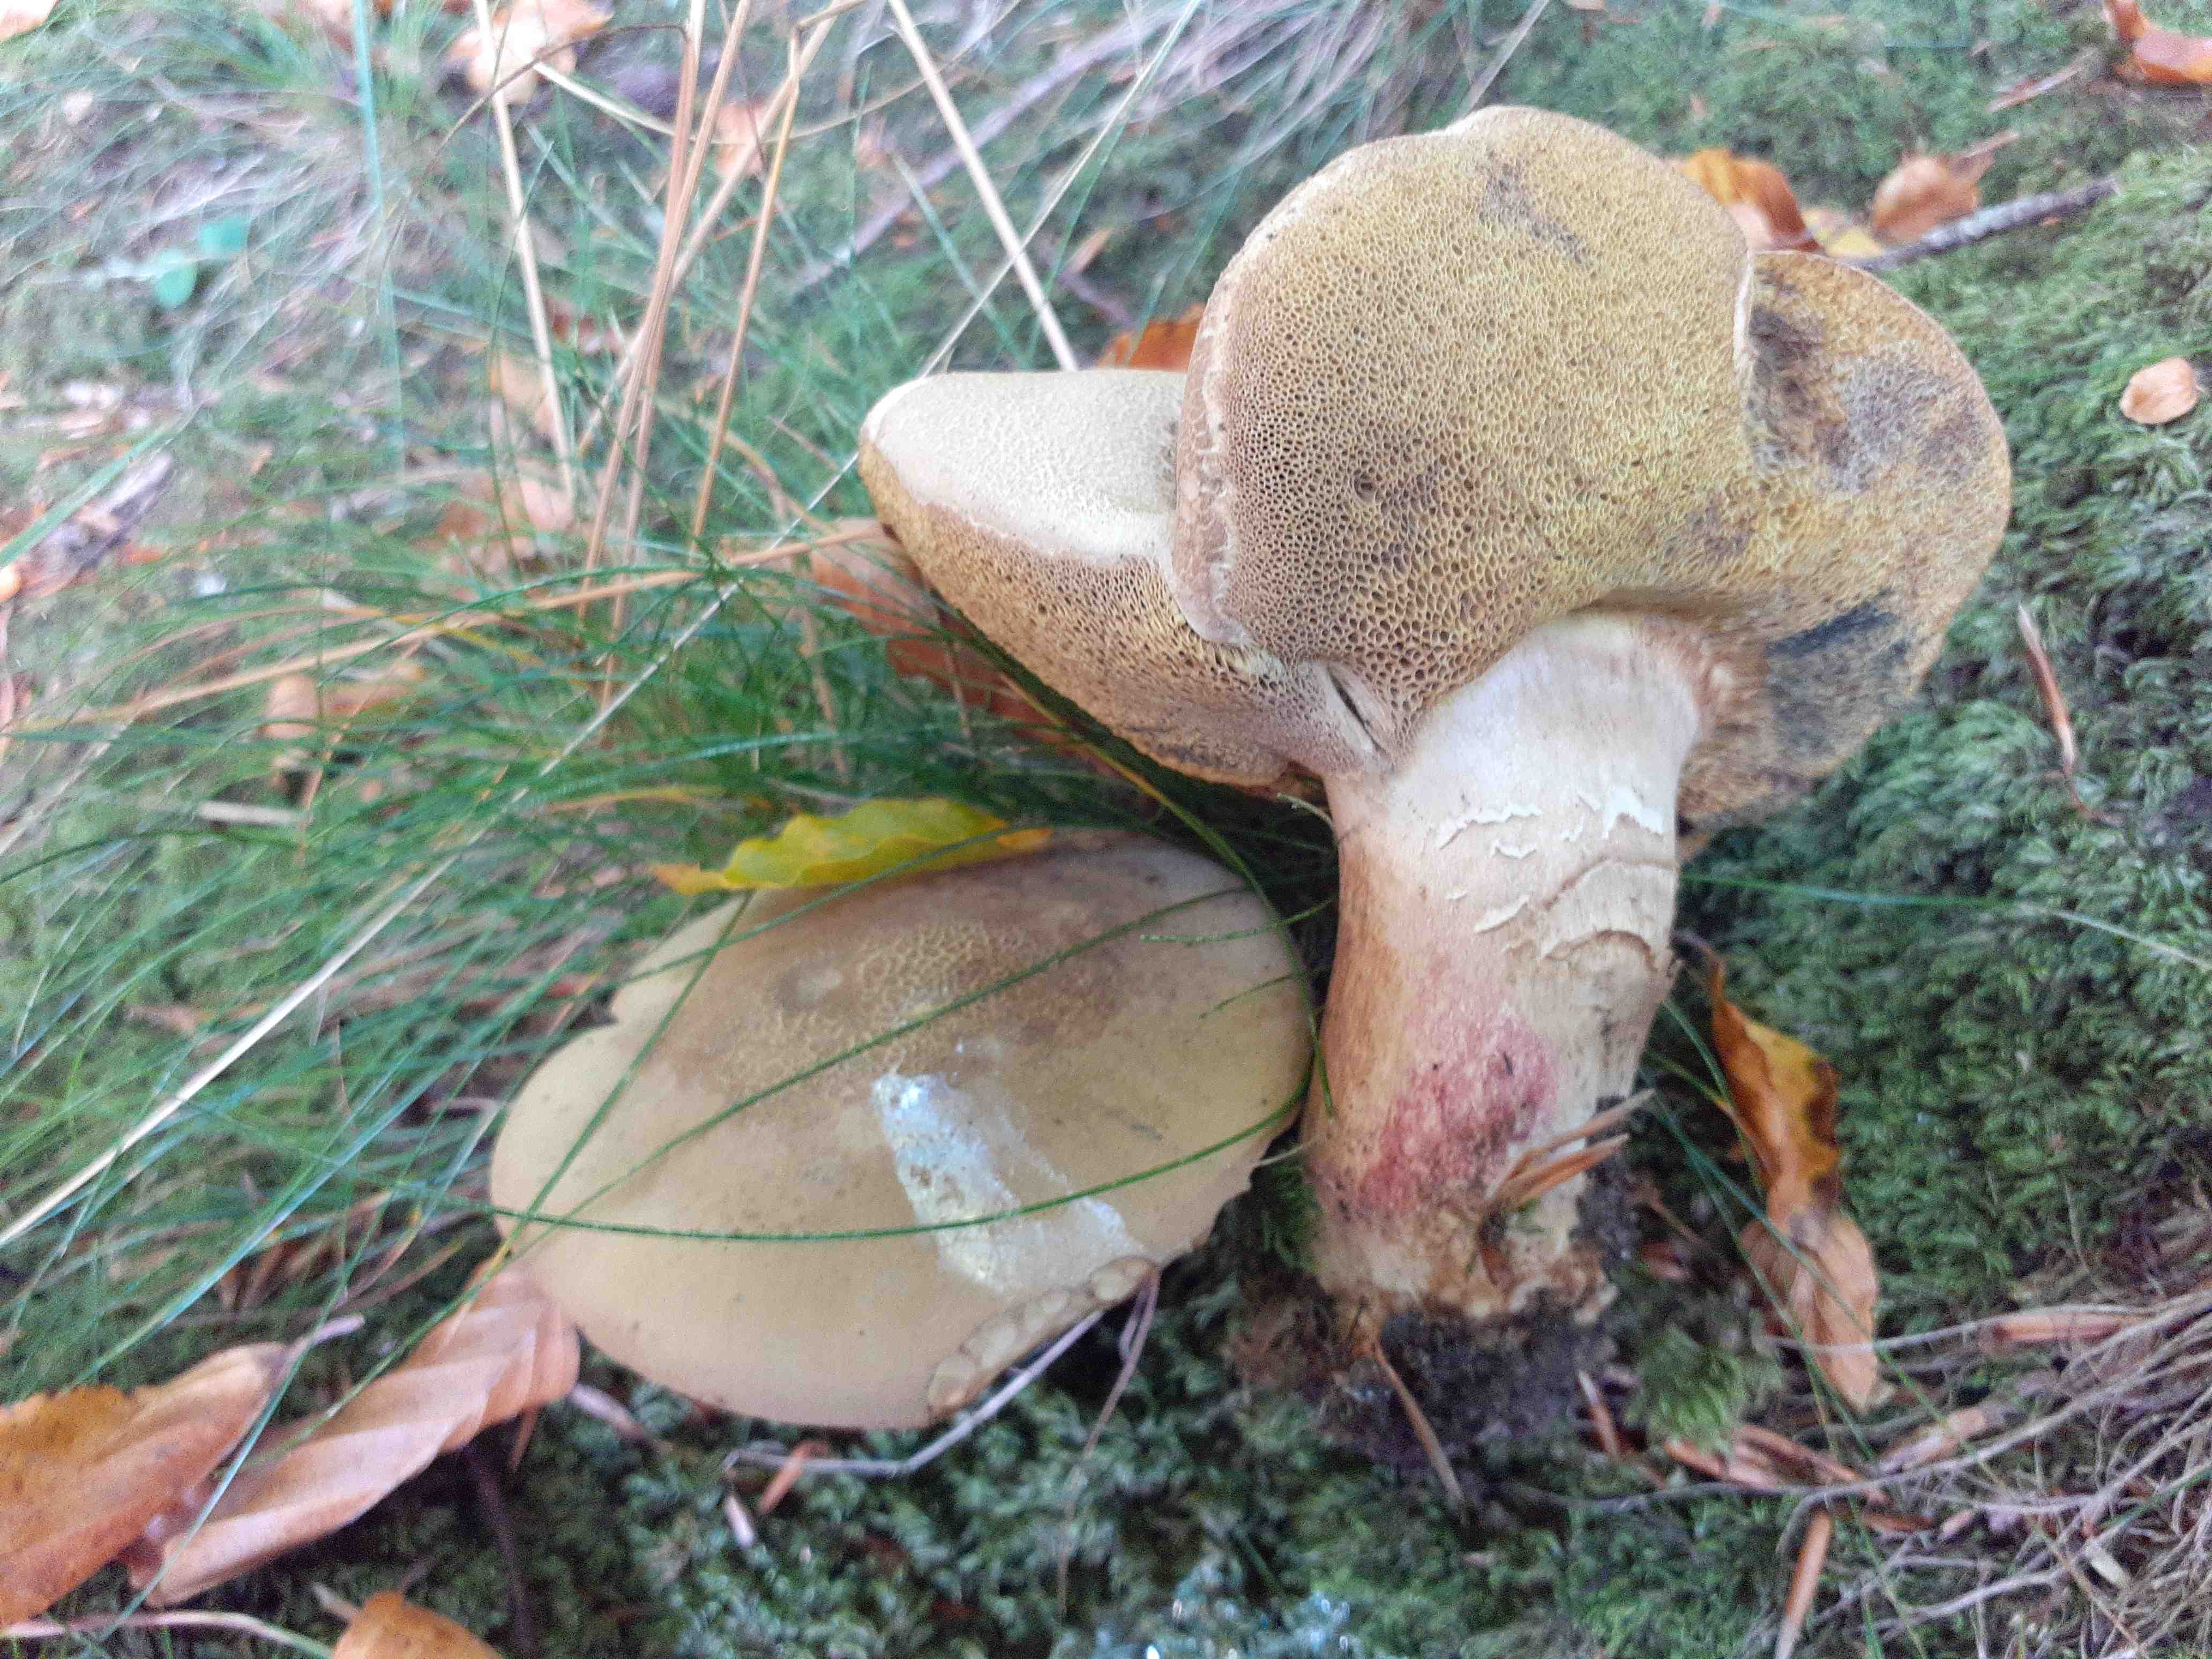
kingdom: Fungi
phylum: Basidiomycota
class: Agaricomycetes
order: Boletales
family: Boletaceae
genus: Caloboletus
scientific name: Caloboletus calopus
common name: skønfodet rørhat
